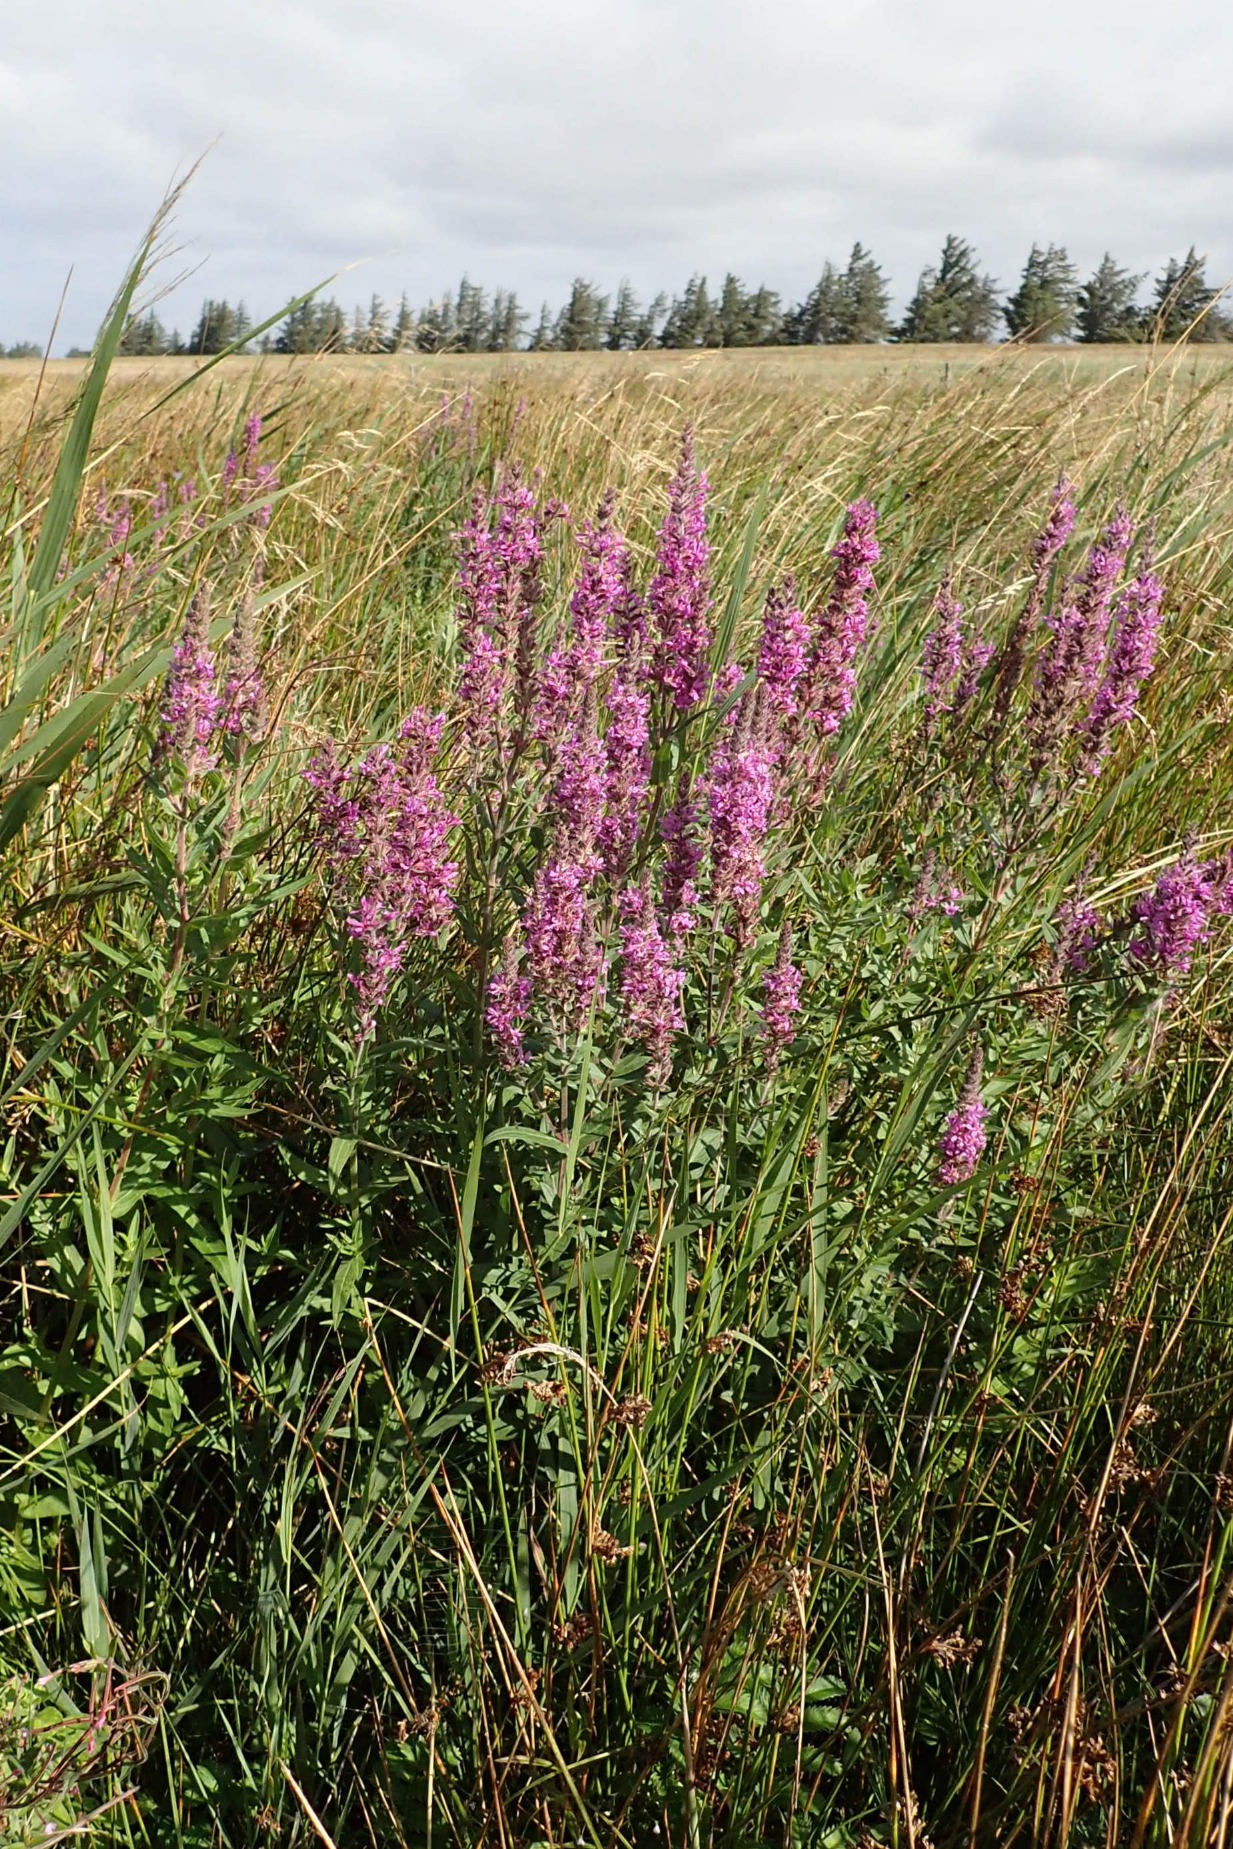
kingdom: Plantae
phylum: Tracheophyta
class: Magnoliopsida
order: Myrtales
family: Lythraceae
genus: Lythrum
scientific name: Lythrum salicaria
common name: Kattehale
